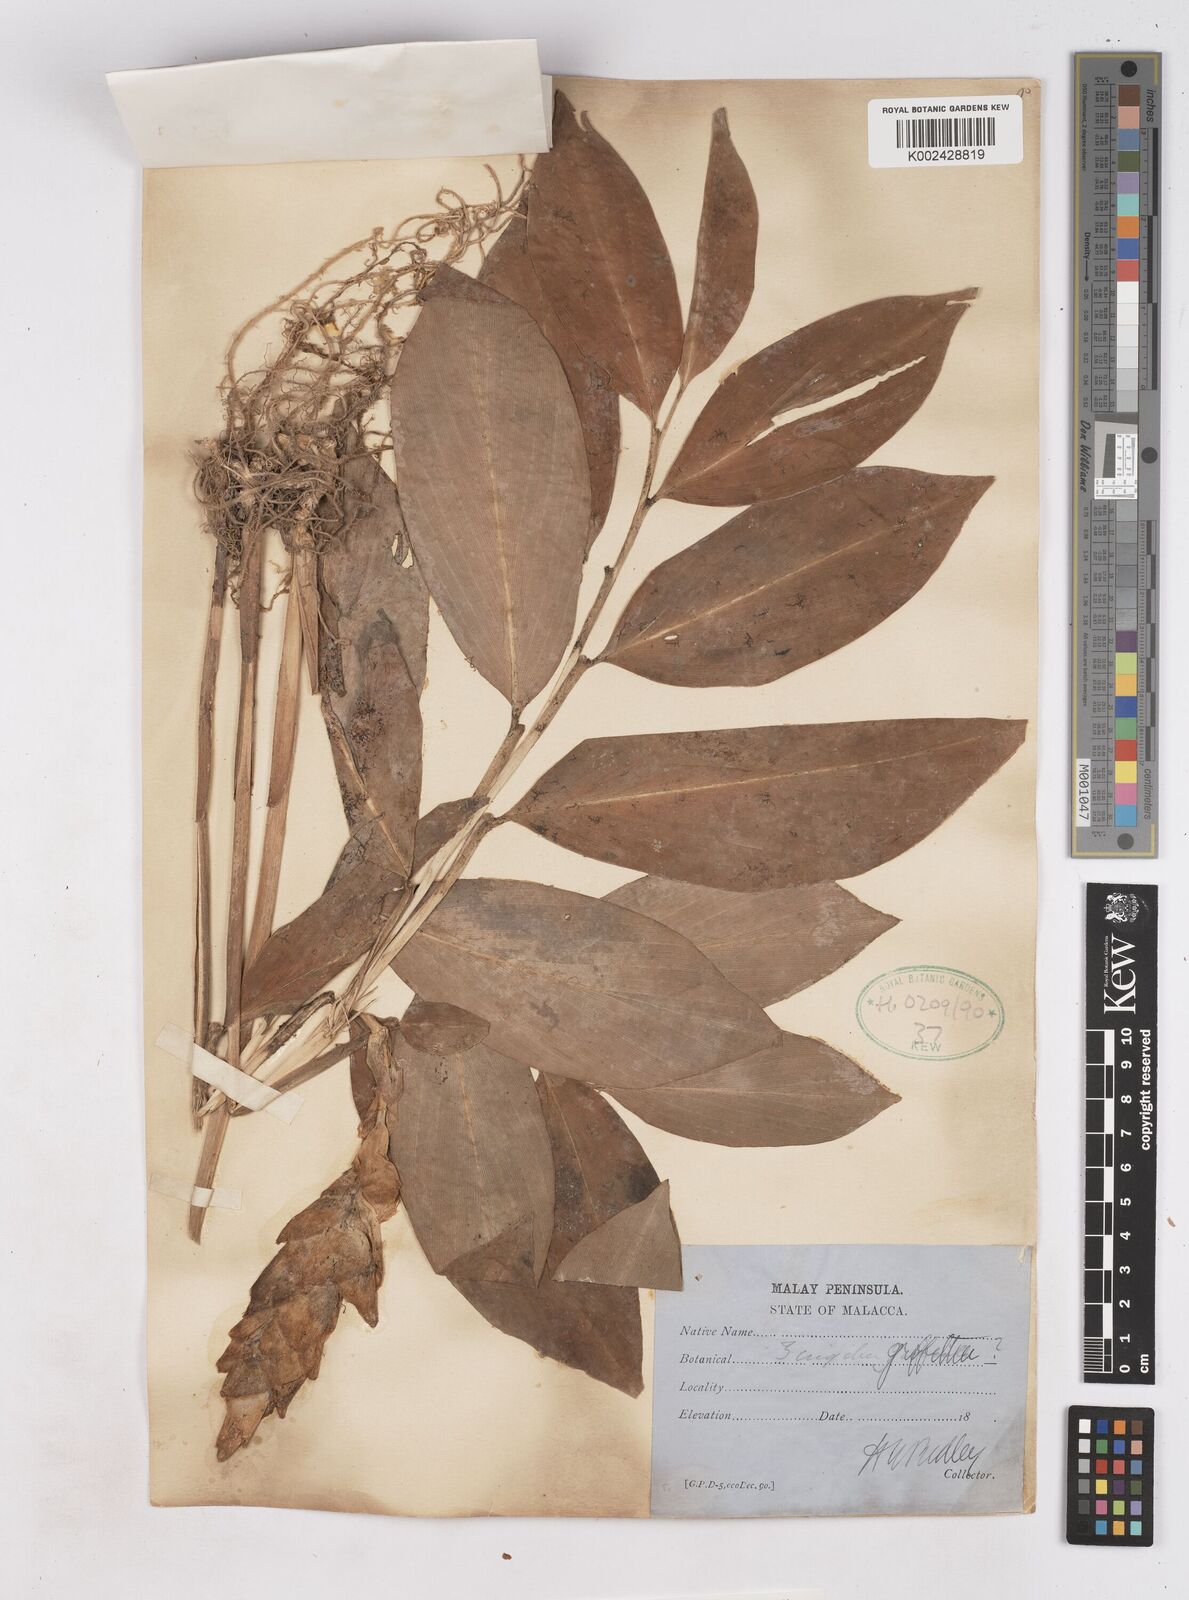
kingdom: Plantae
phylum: Tracheophyta
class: Liliopsida
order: Zingiberales
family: Zingiberaceae
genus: Zingiber
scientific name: Zingiber griffithii
